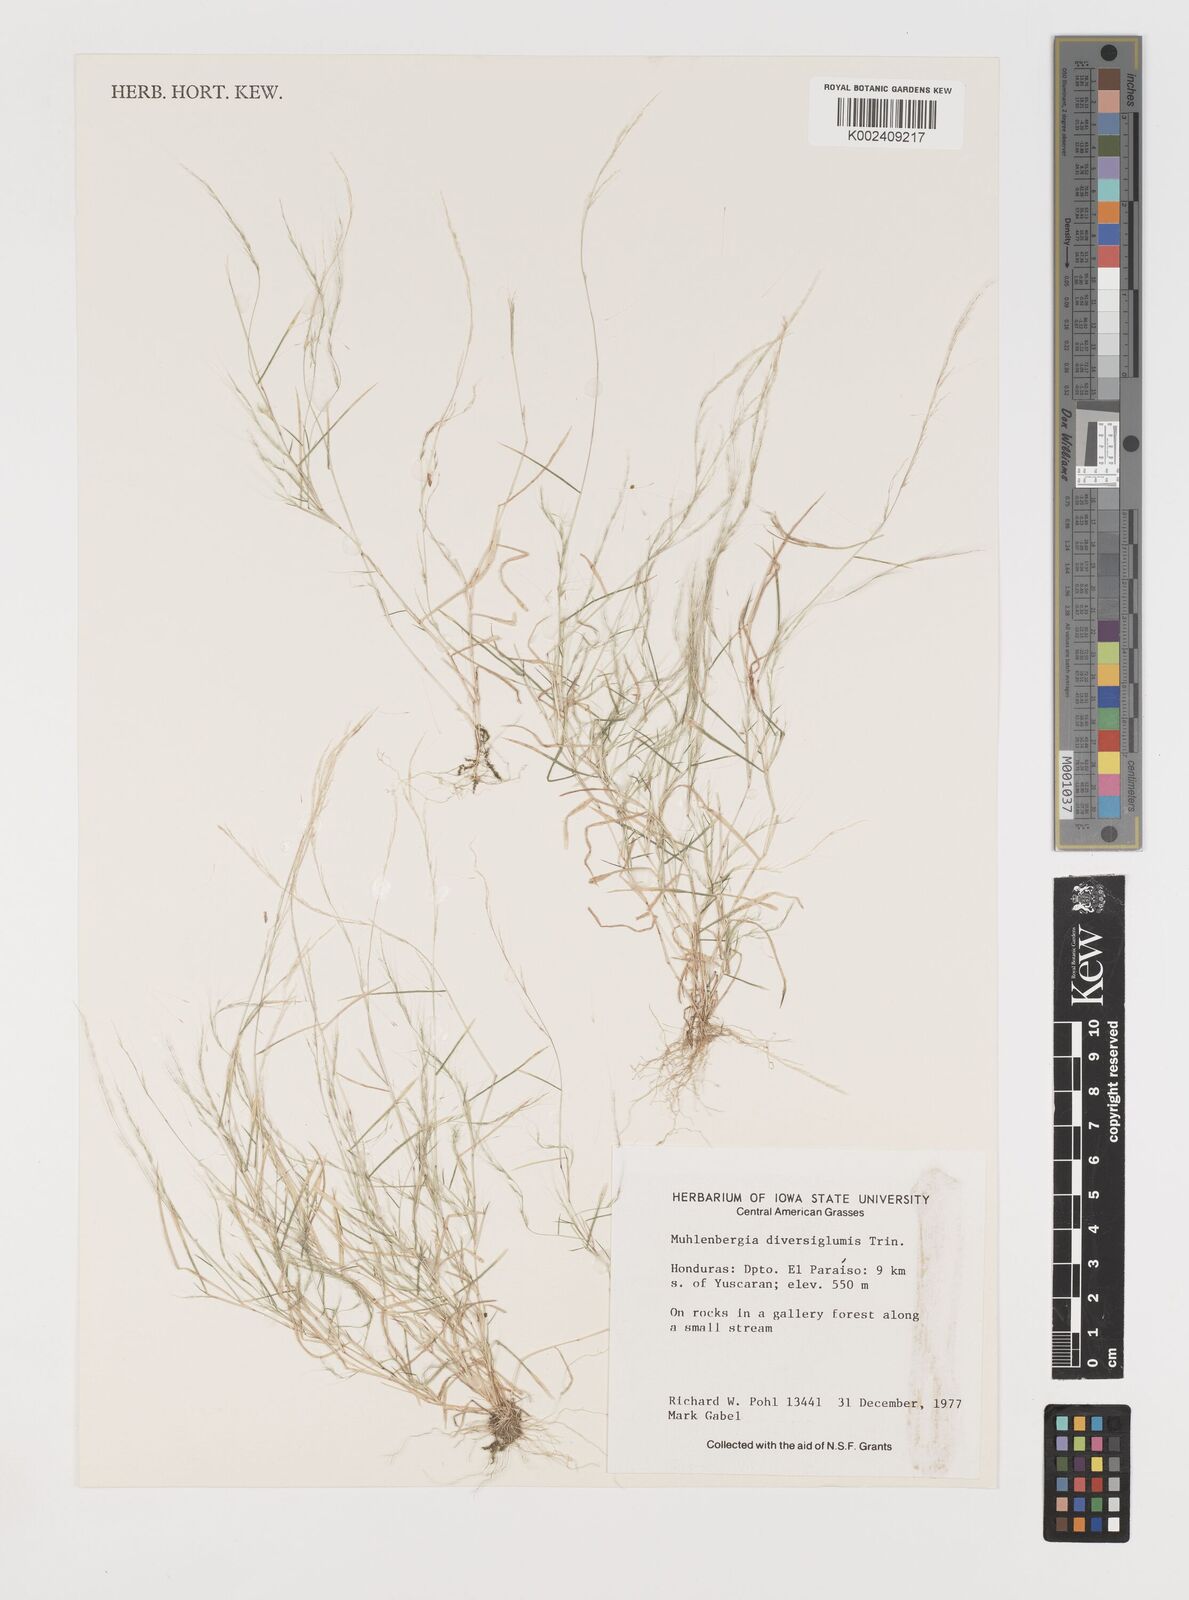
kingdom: Plantae
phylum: Tracheophyta
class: Liliopsida
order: Poales
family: Poaceae
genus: Muhlenbergia
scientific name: Muhlenbergia diversiglumis
